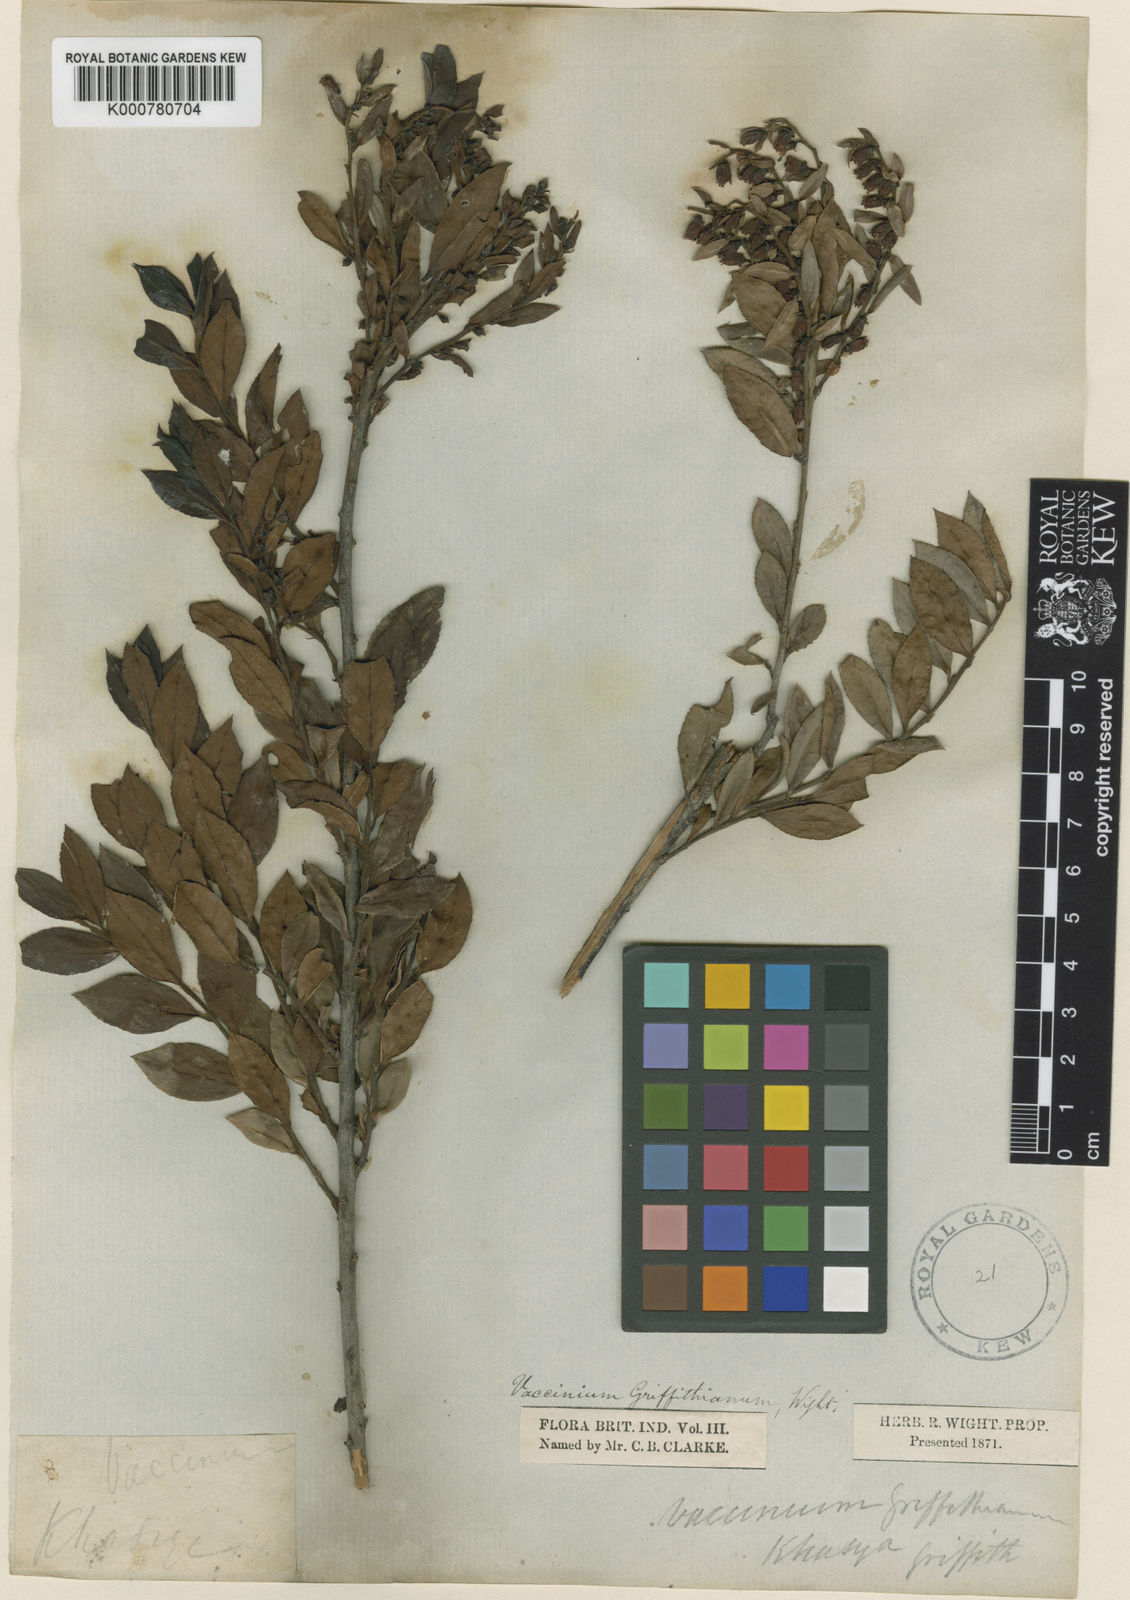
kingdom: Plantae
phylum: Tracheophyta
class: Magnoliopsida
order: Ericales
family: Ericaceae
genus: Vaccinium
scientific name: Vaccinium griffithianum
